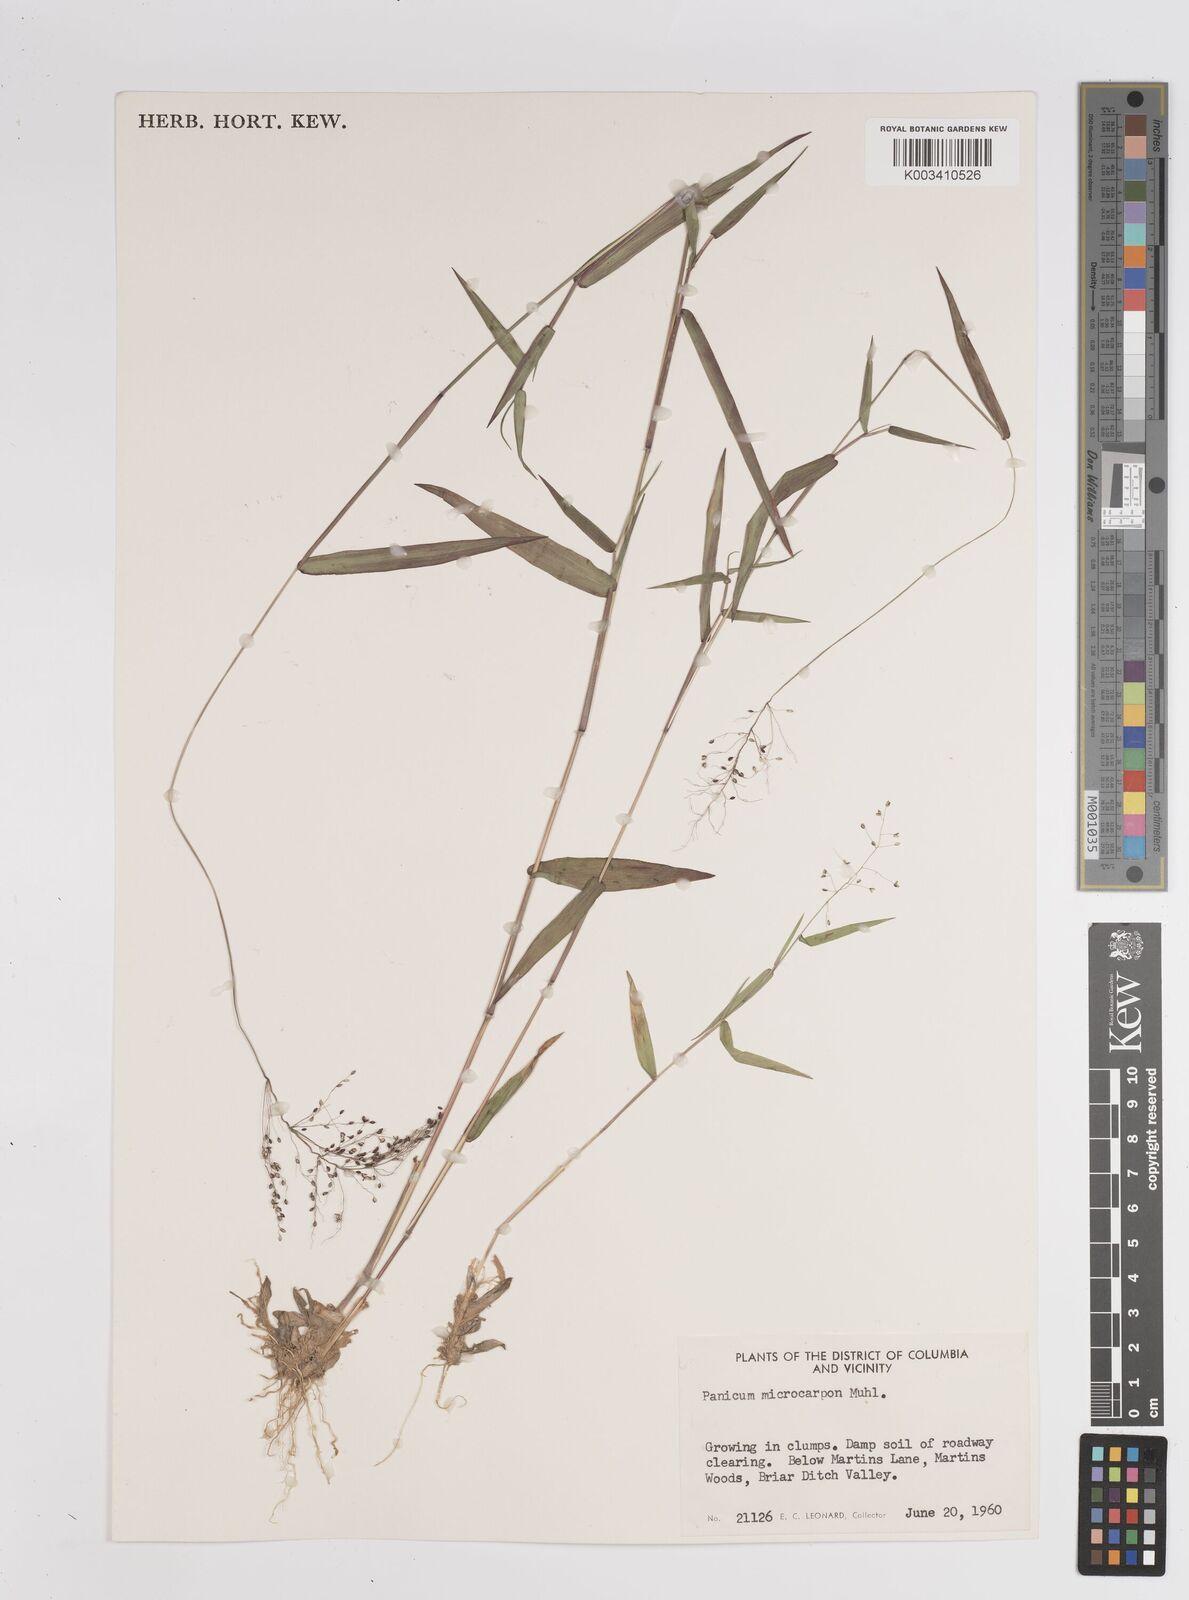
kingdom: Plantae
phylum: Tracheophyta
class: Liliopsida
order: Poales
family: Poaceae
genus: Dichanthelium
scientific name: Dichanthelium polyanthes
